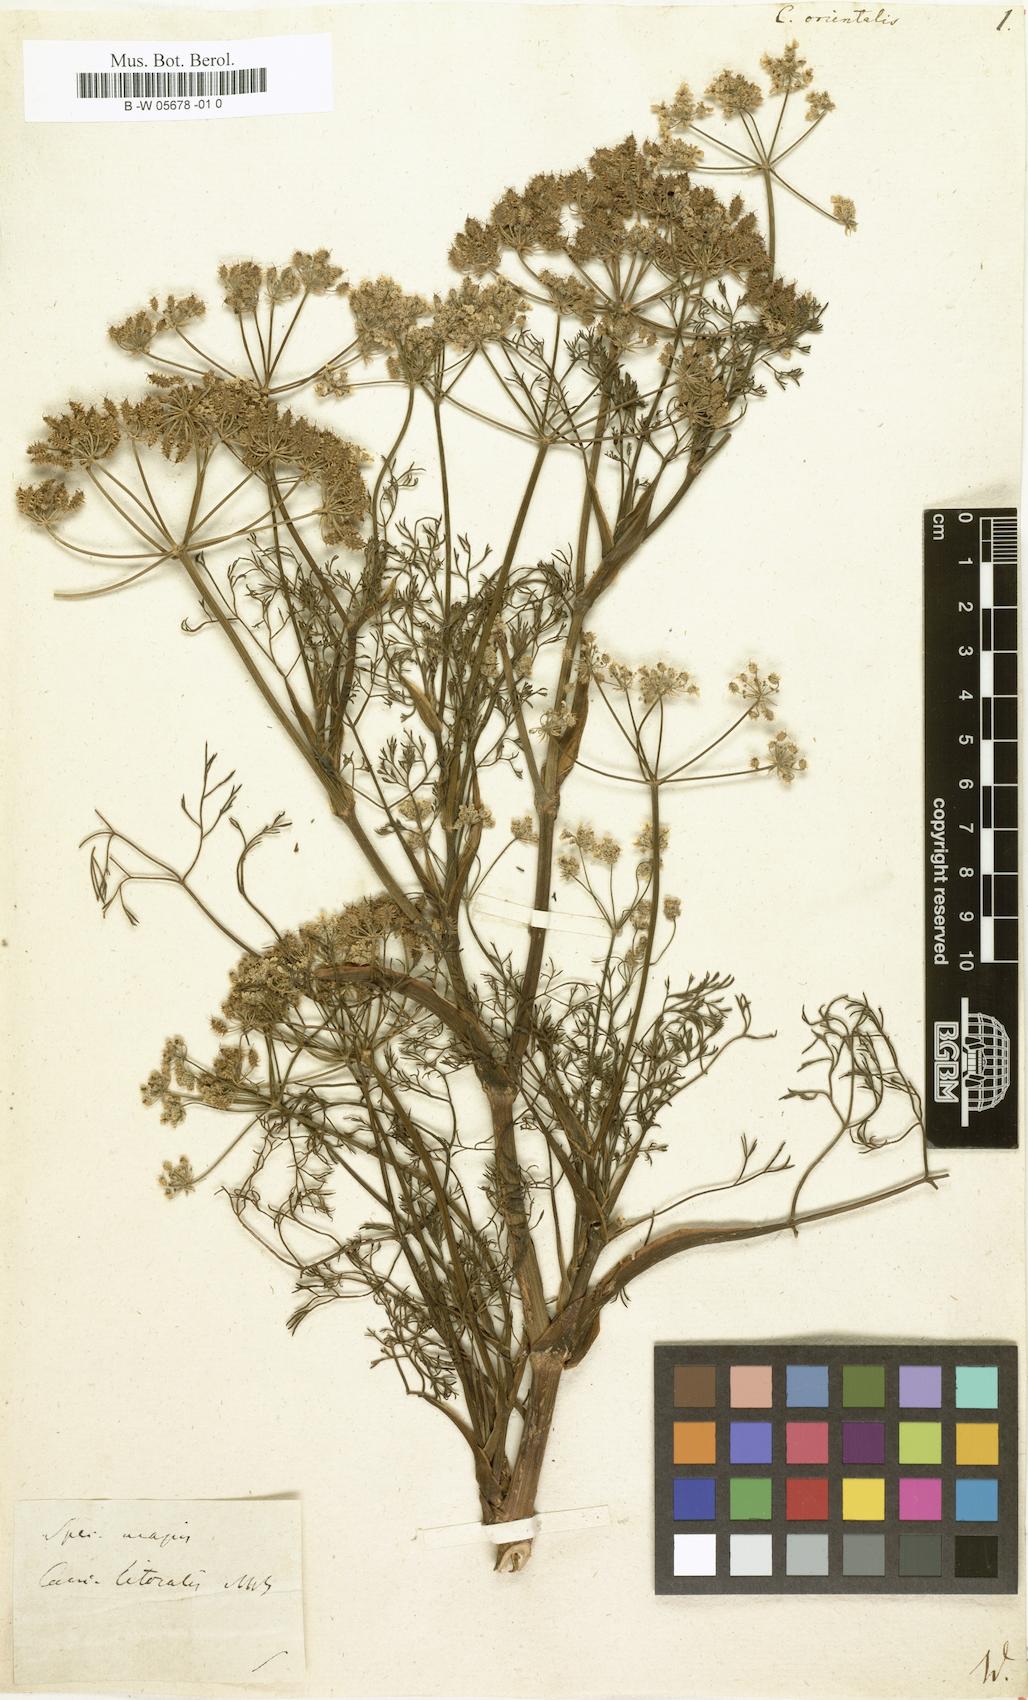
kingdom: Plantae
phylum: Tracheophyta
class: Magnoliopsida
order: Apiales
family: Apiaceae
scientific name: Apiaceae
